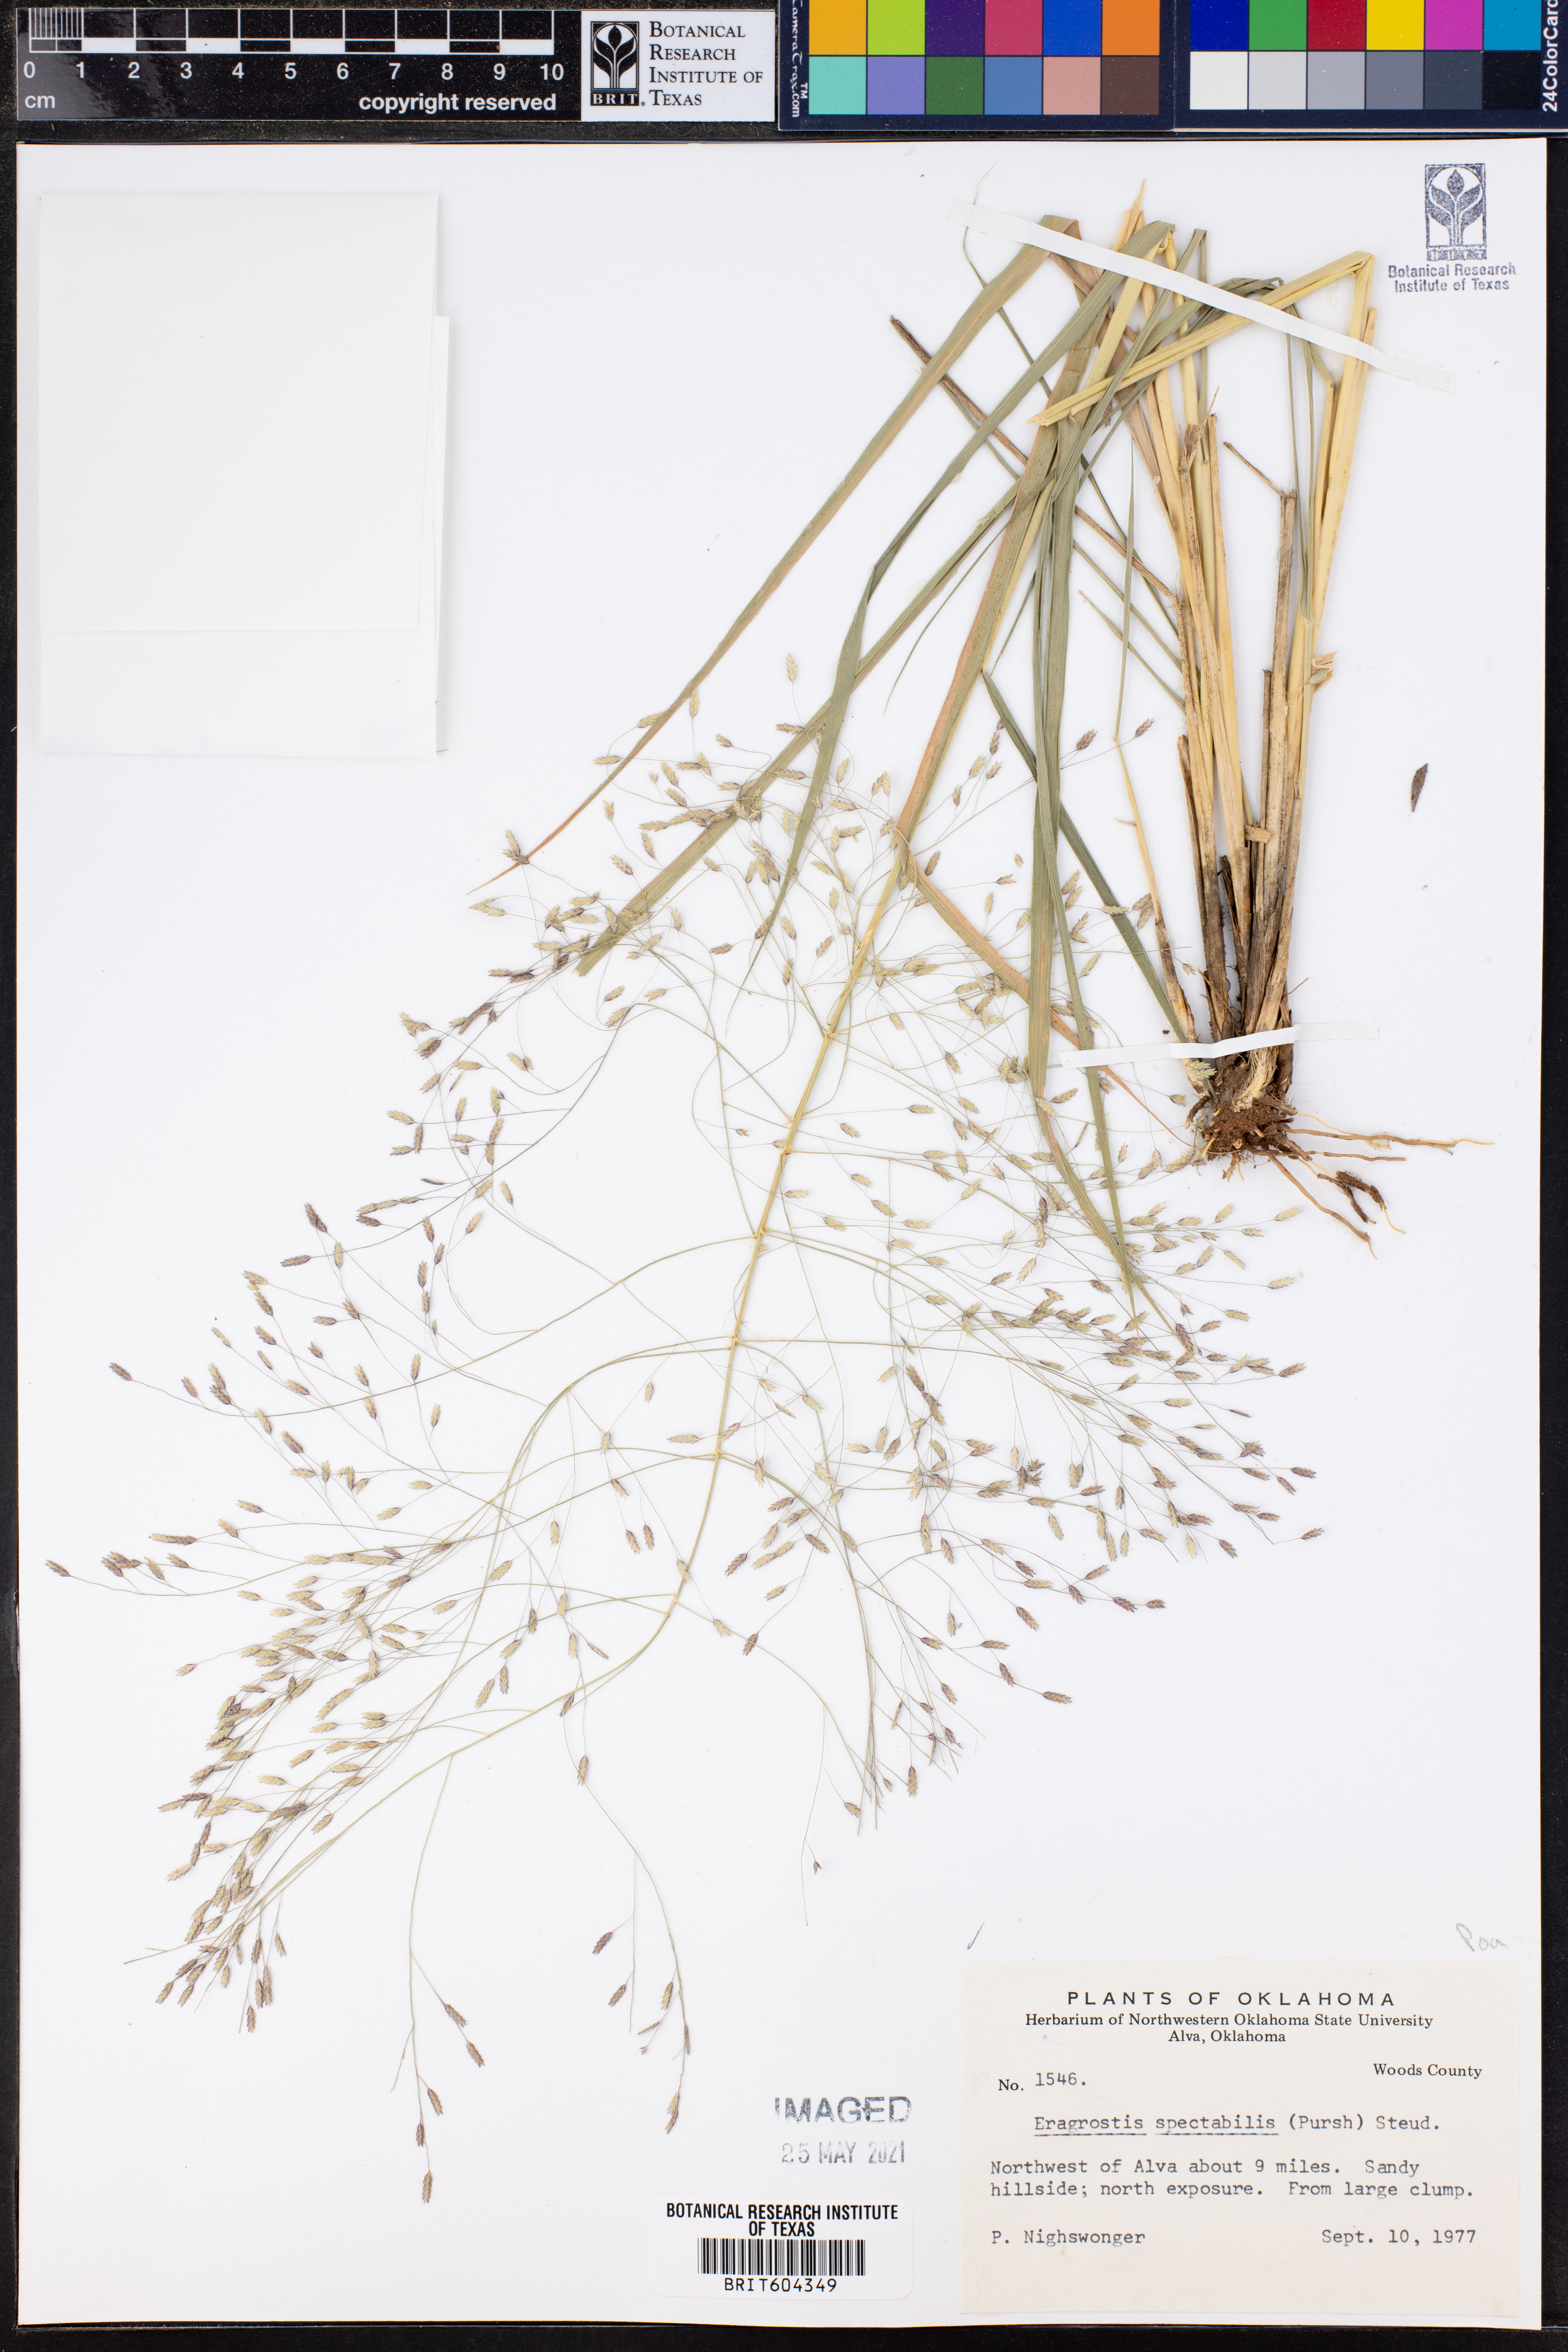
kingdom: Plantae
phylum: Tracheophyta
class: Liliopsida
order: Poales
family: Poaceae
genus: Eragrostis
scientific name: Eragrostis spectabilis
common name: Petticoat-climber
